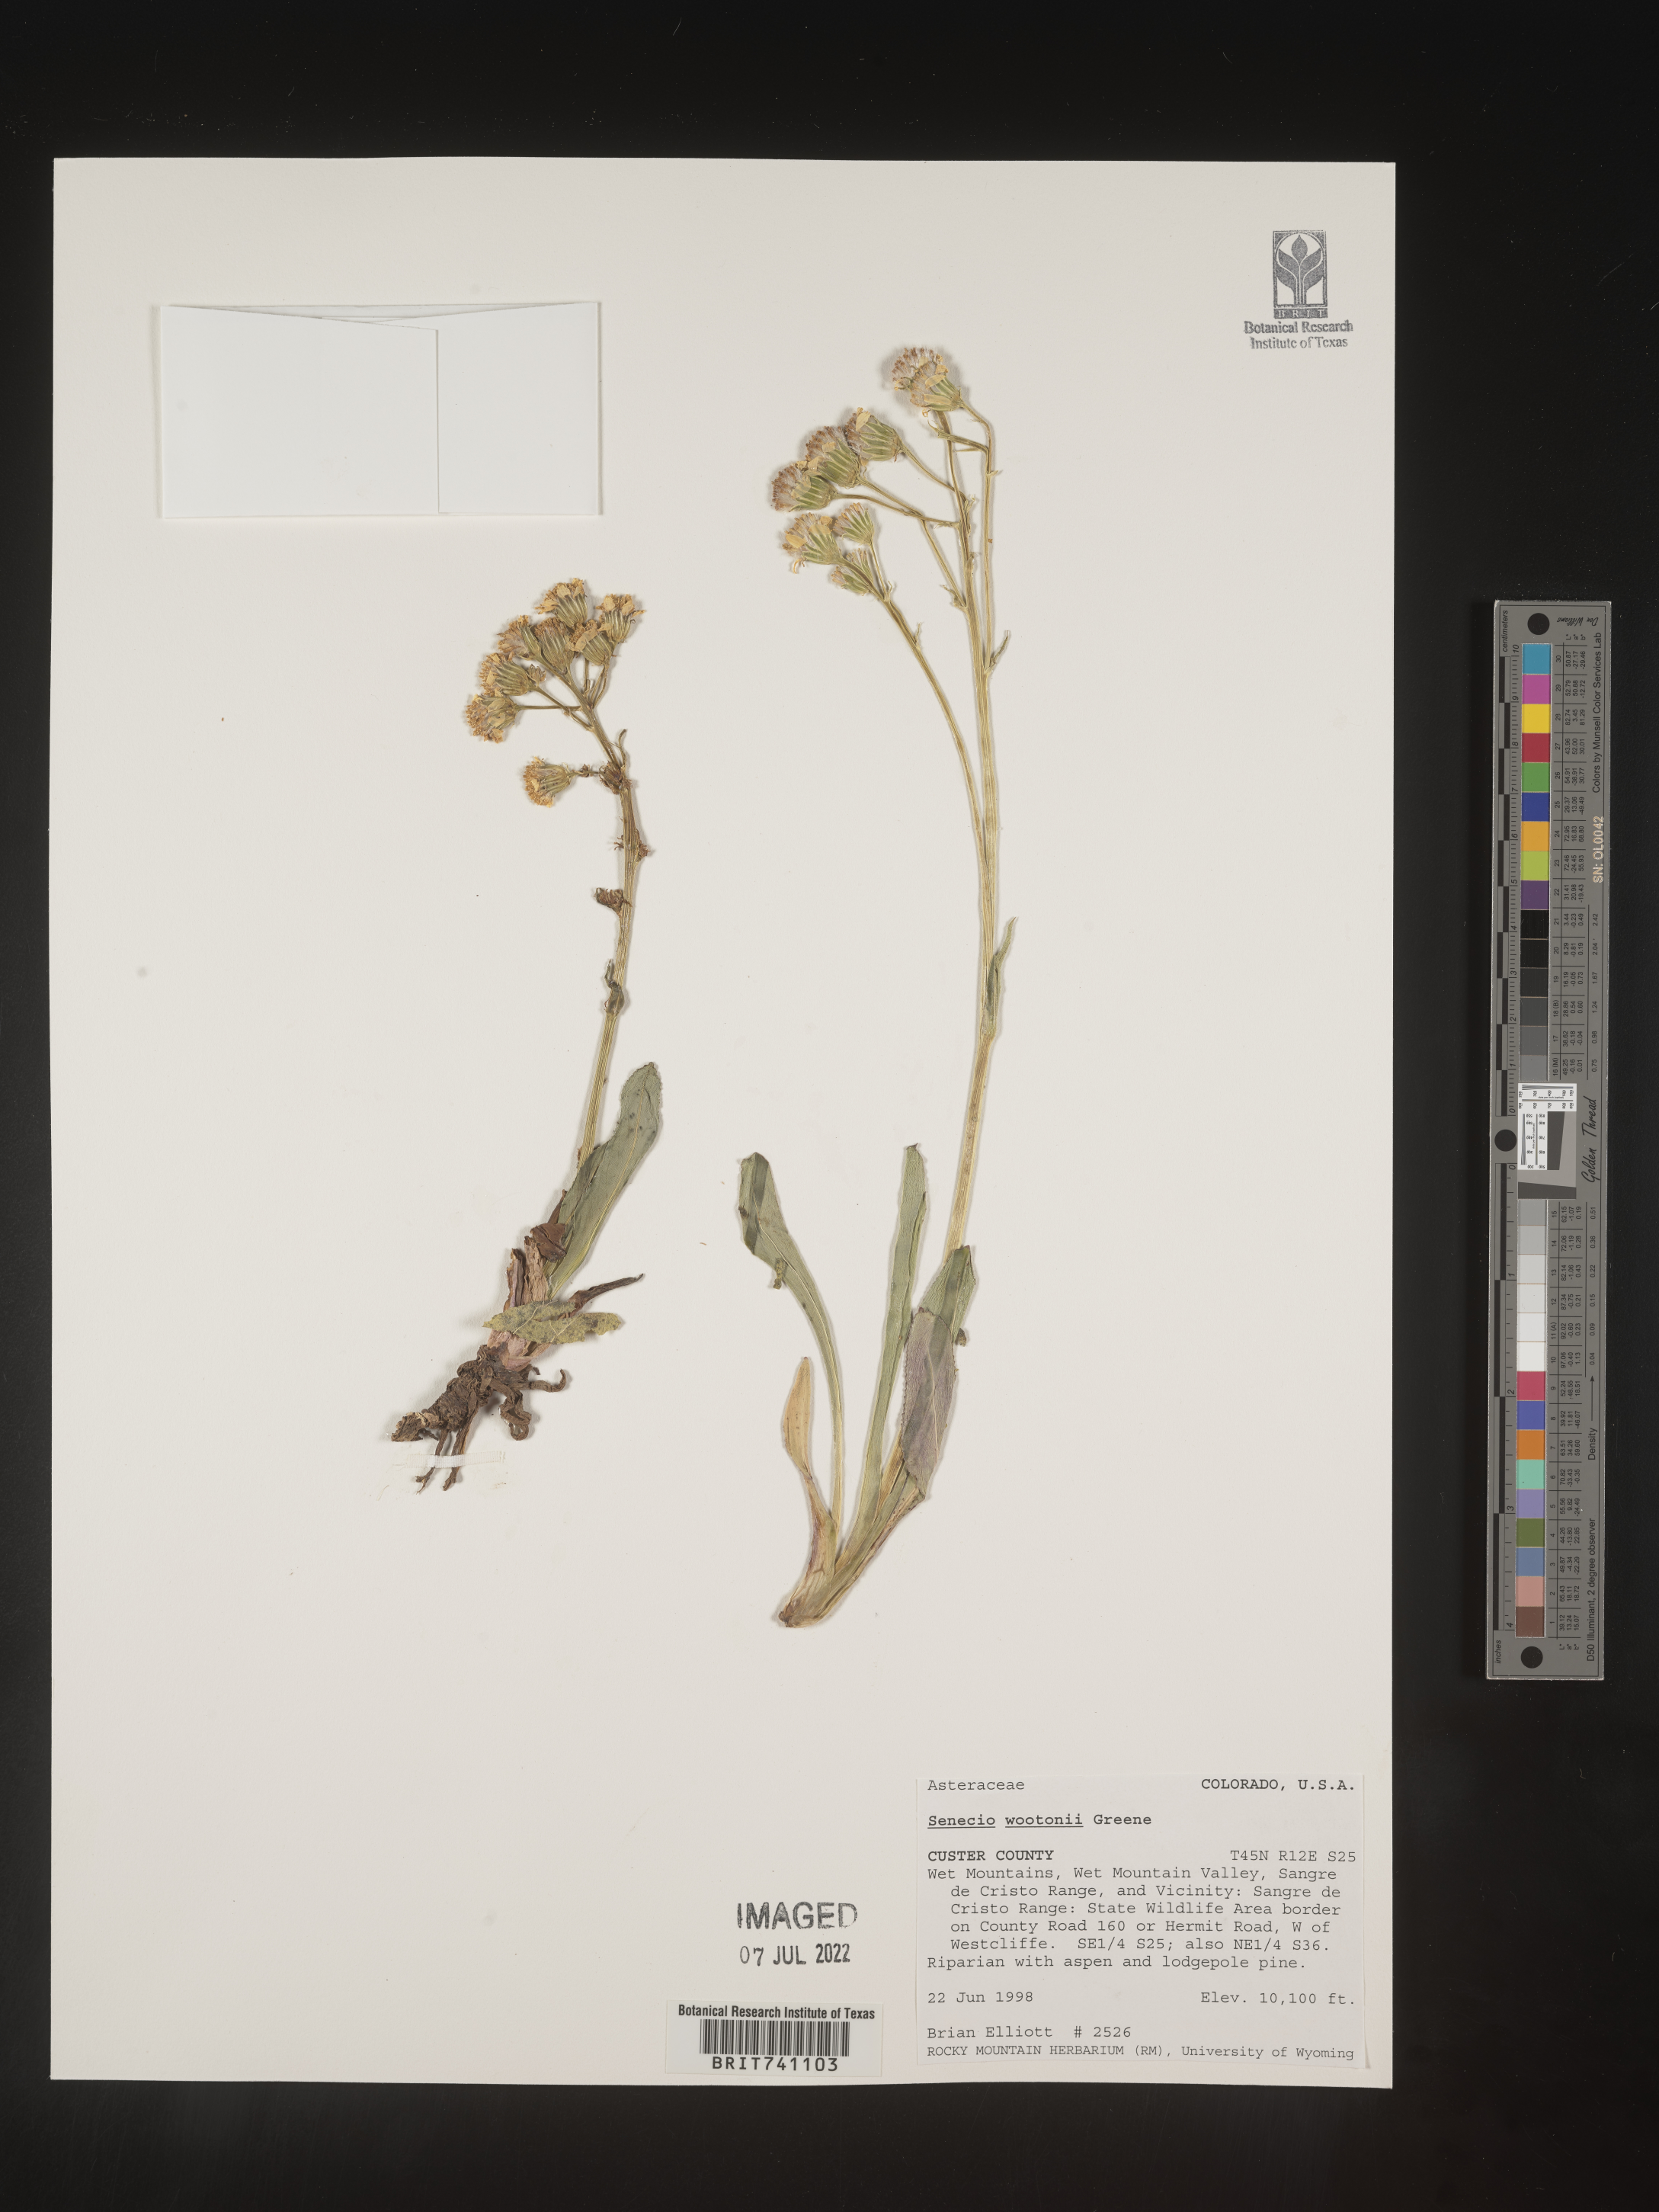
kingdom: Plantae
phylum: Tracheophyta
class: Magnoliopsida
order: Asterales
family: Asteraceae
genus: Senecio
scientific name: Senecio wootonii
